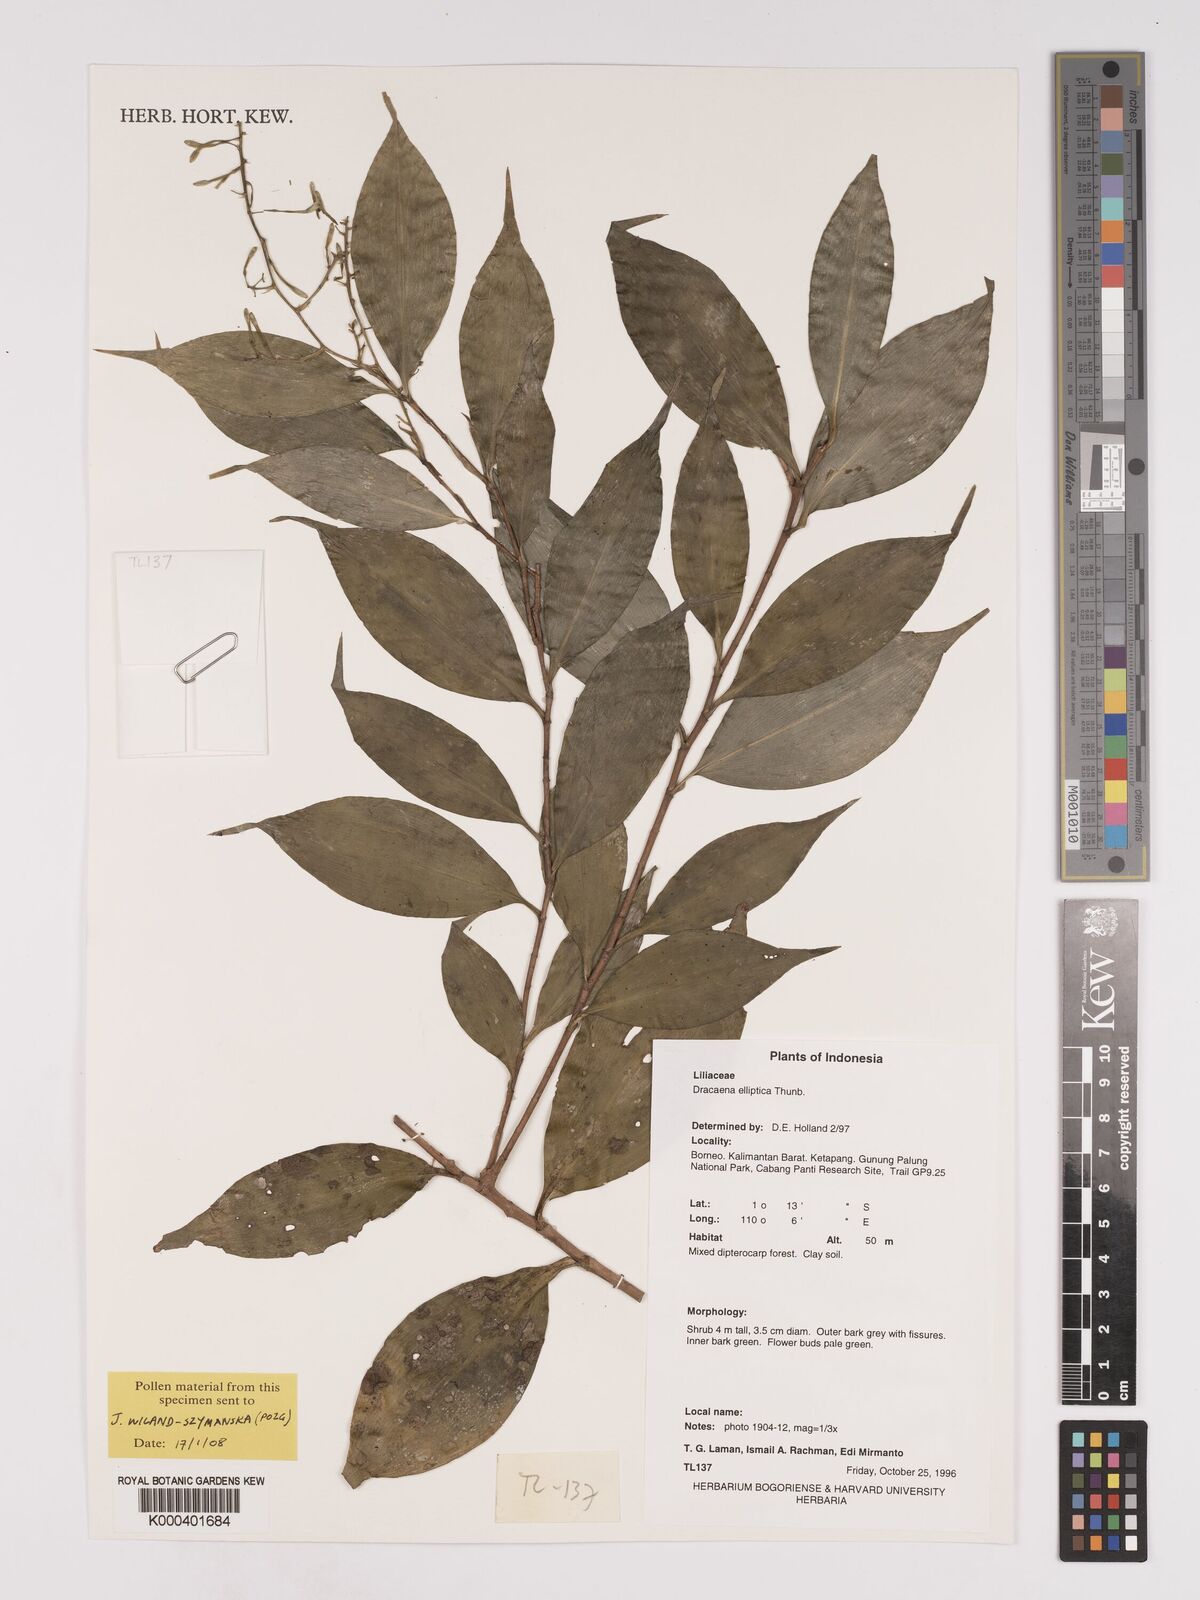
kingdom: Plantae
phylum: Tracheophyta
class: Liliopsida
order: Asparagales
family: Asparagaceae
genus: Dracaena
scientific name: Dracaena elliptica
